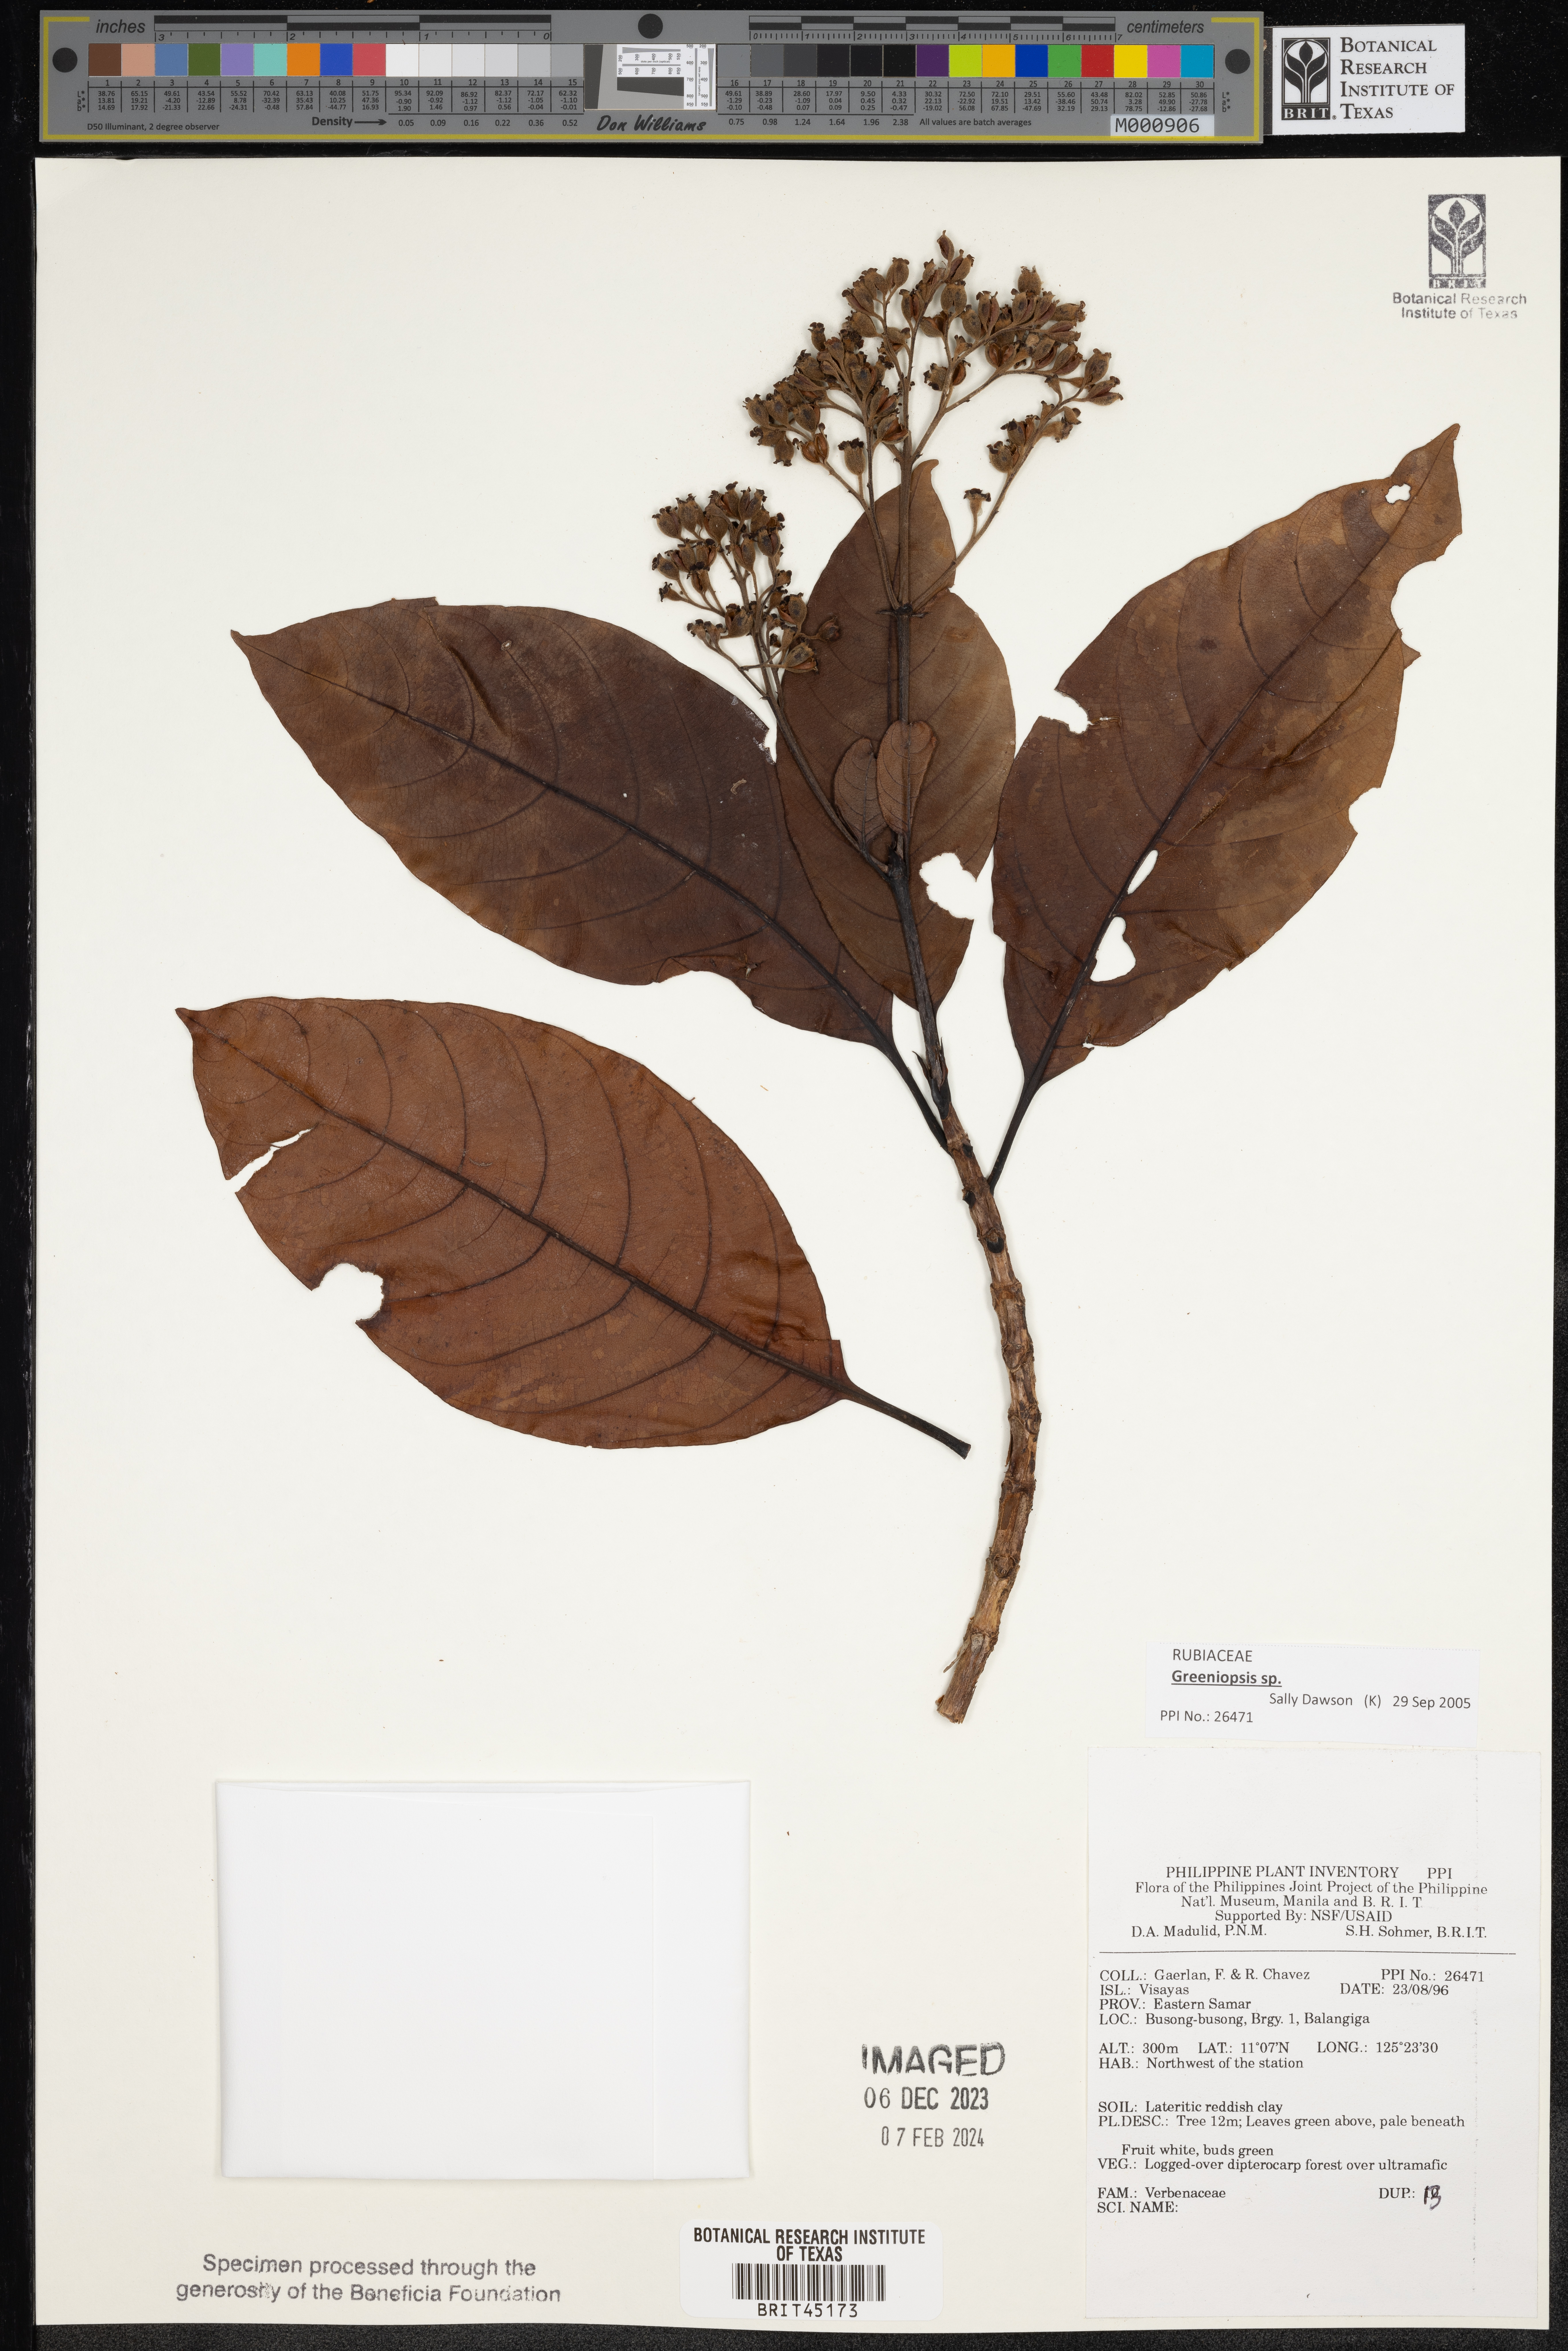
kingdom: Plantae
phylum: Tracheophyta
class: Magnoliopsida
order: Lamiales
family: Verbenaceae
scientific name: Verbenaceae
